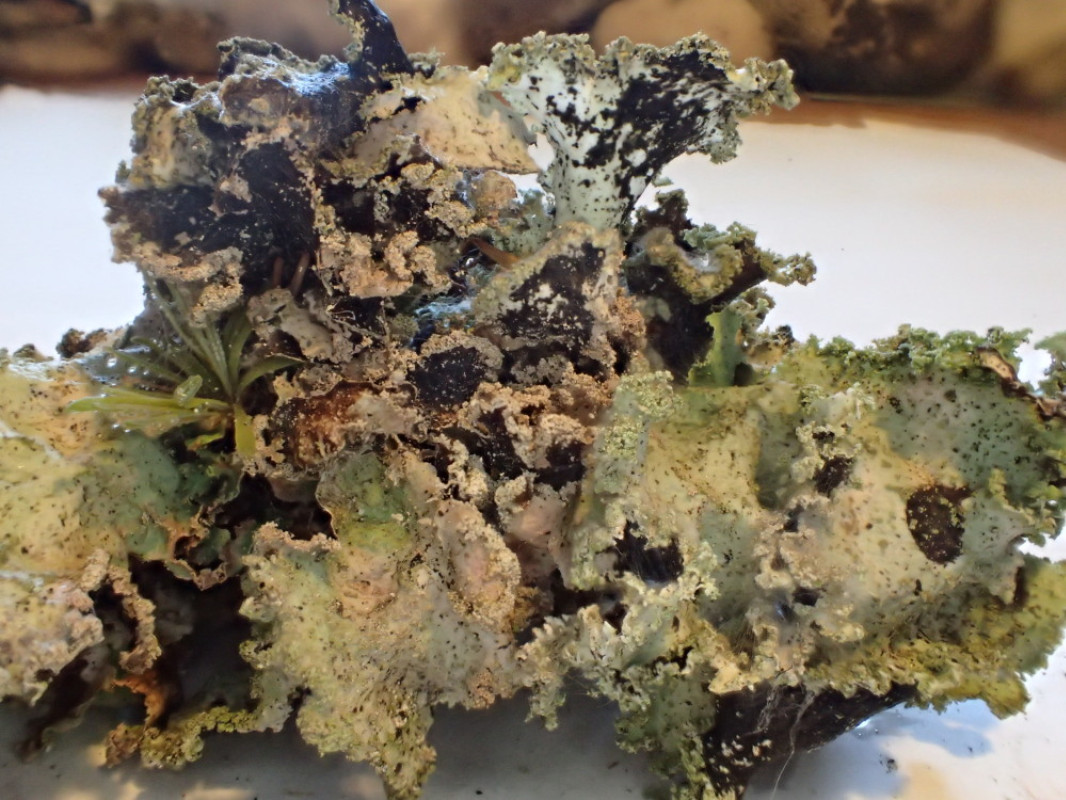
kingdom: Fungi
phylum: Ascomycota
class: Lecanoromycetes
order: Lecanorales
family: Parmeliaceae
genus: Platismatia
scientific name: Platismatia glauca
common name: blågrå papirlav
